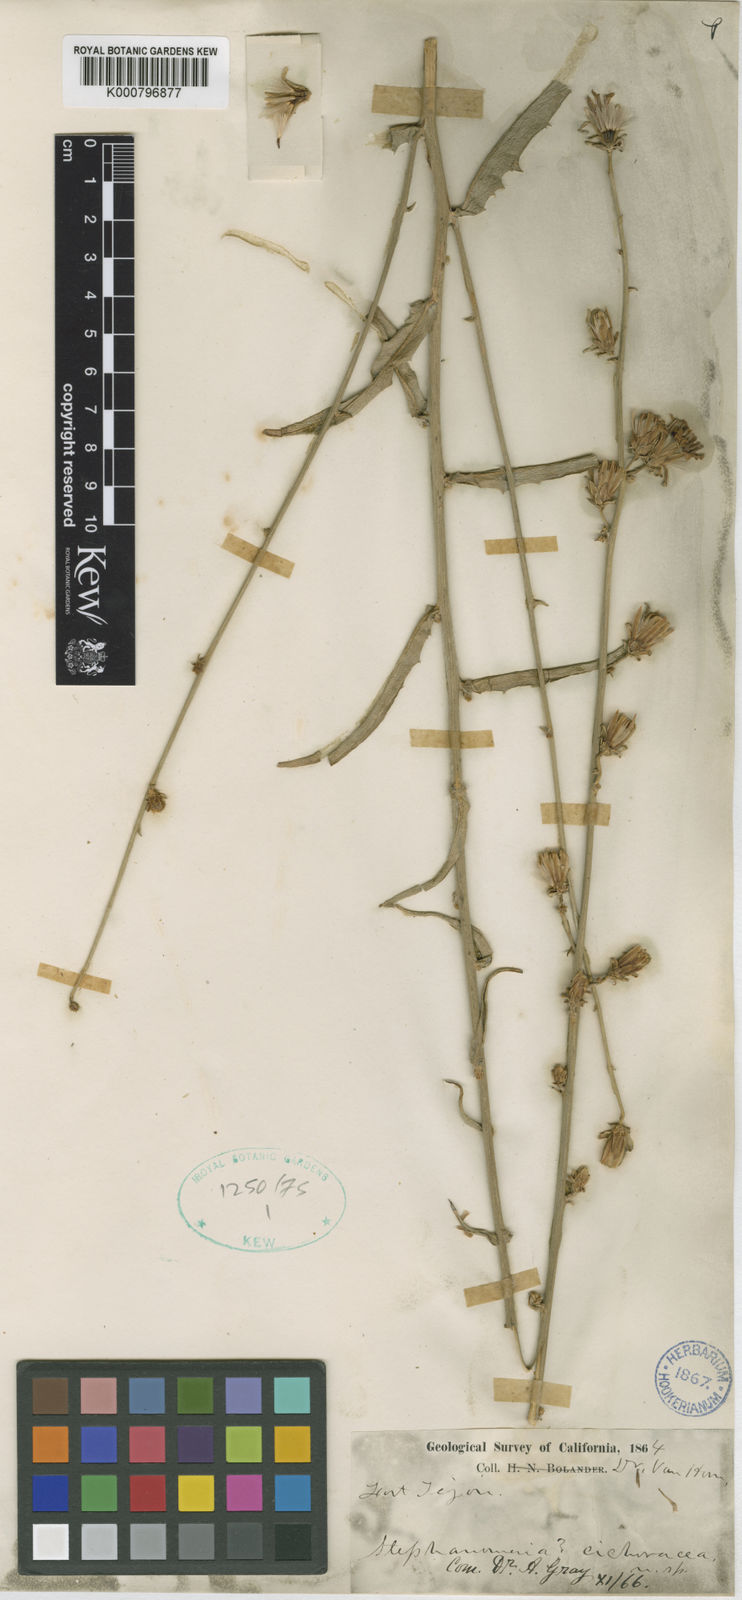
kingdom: Plantae
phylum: Tracheophyta
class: Magnoliopsida
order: Asterales
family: Asteraceae
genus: Stephanomeria
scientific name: Stephanomeria cichoriacea
